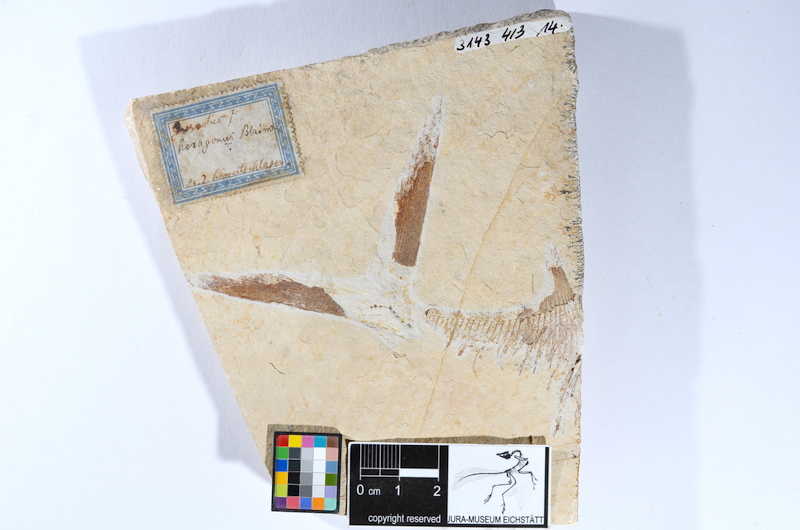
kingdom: Animalia
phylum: Chordata
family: Gyrodontidae
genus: Gyrodus
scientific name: Gyrodus hexagonus
